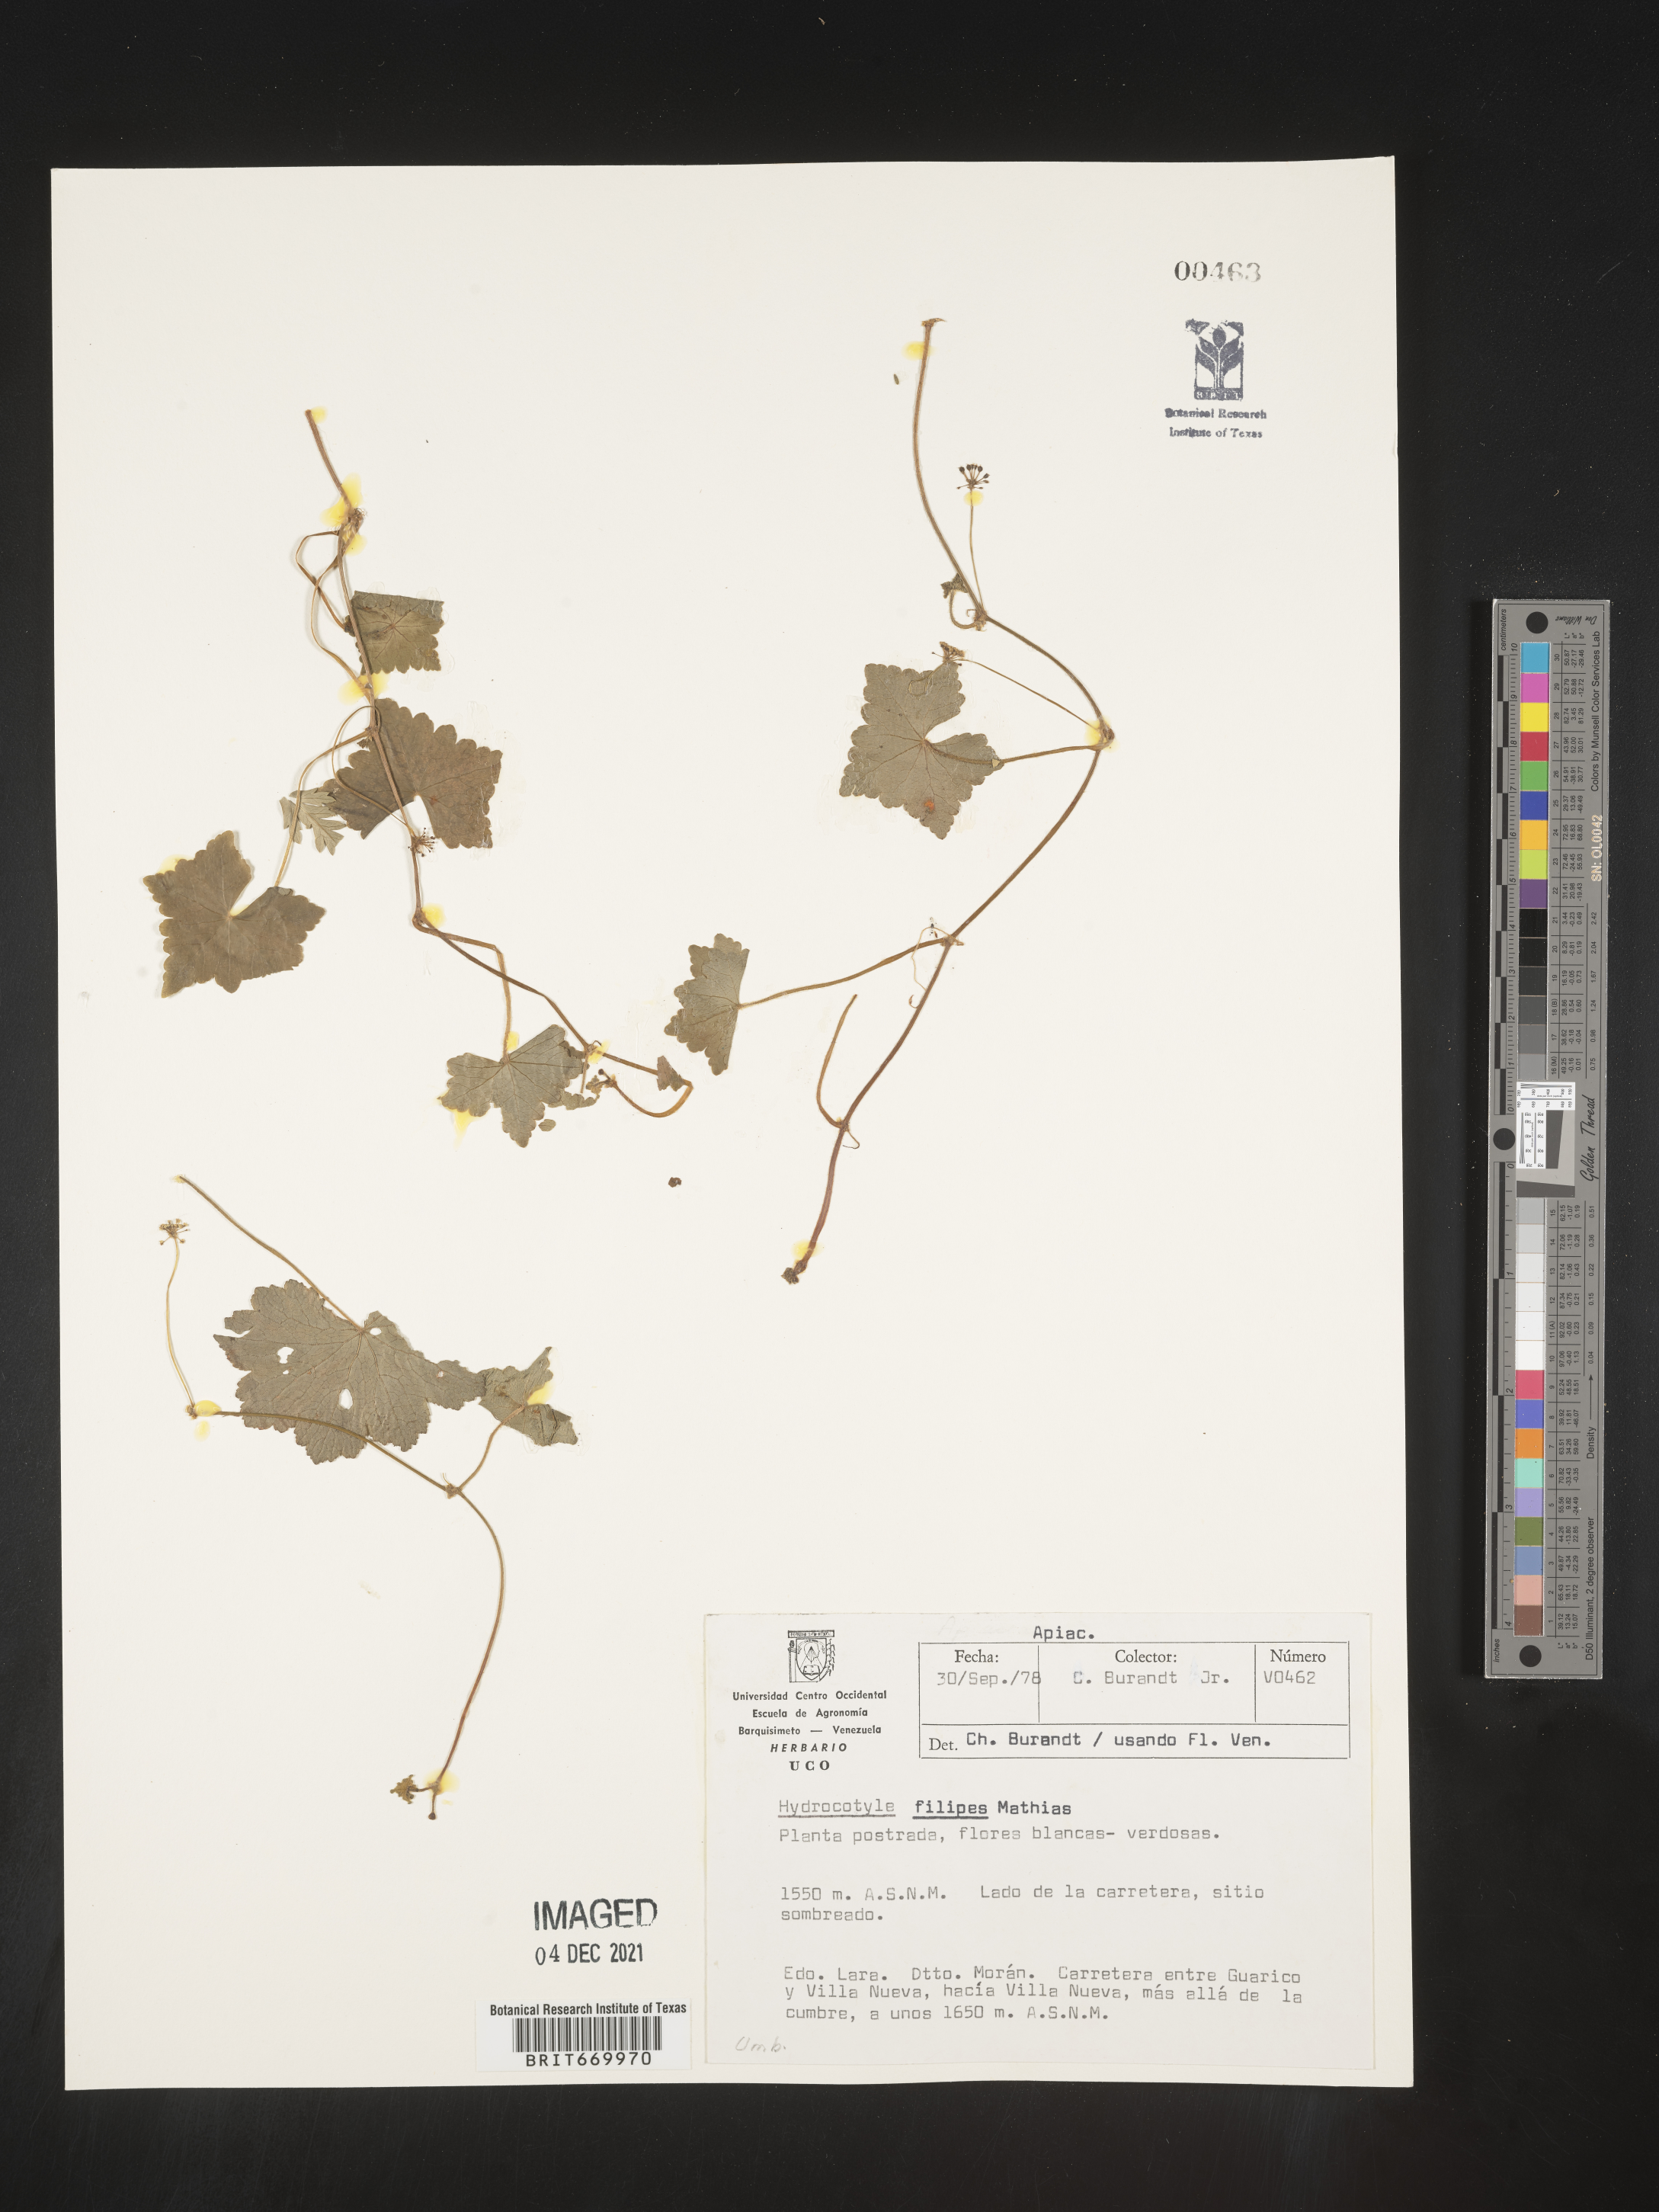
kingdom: Plantae
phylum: Tracheophyta
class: Magnoliopsida
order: Apiales
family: Araliaceae
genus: Hydrocotyle
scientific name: Hydrocotyle
